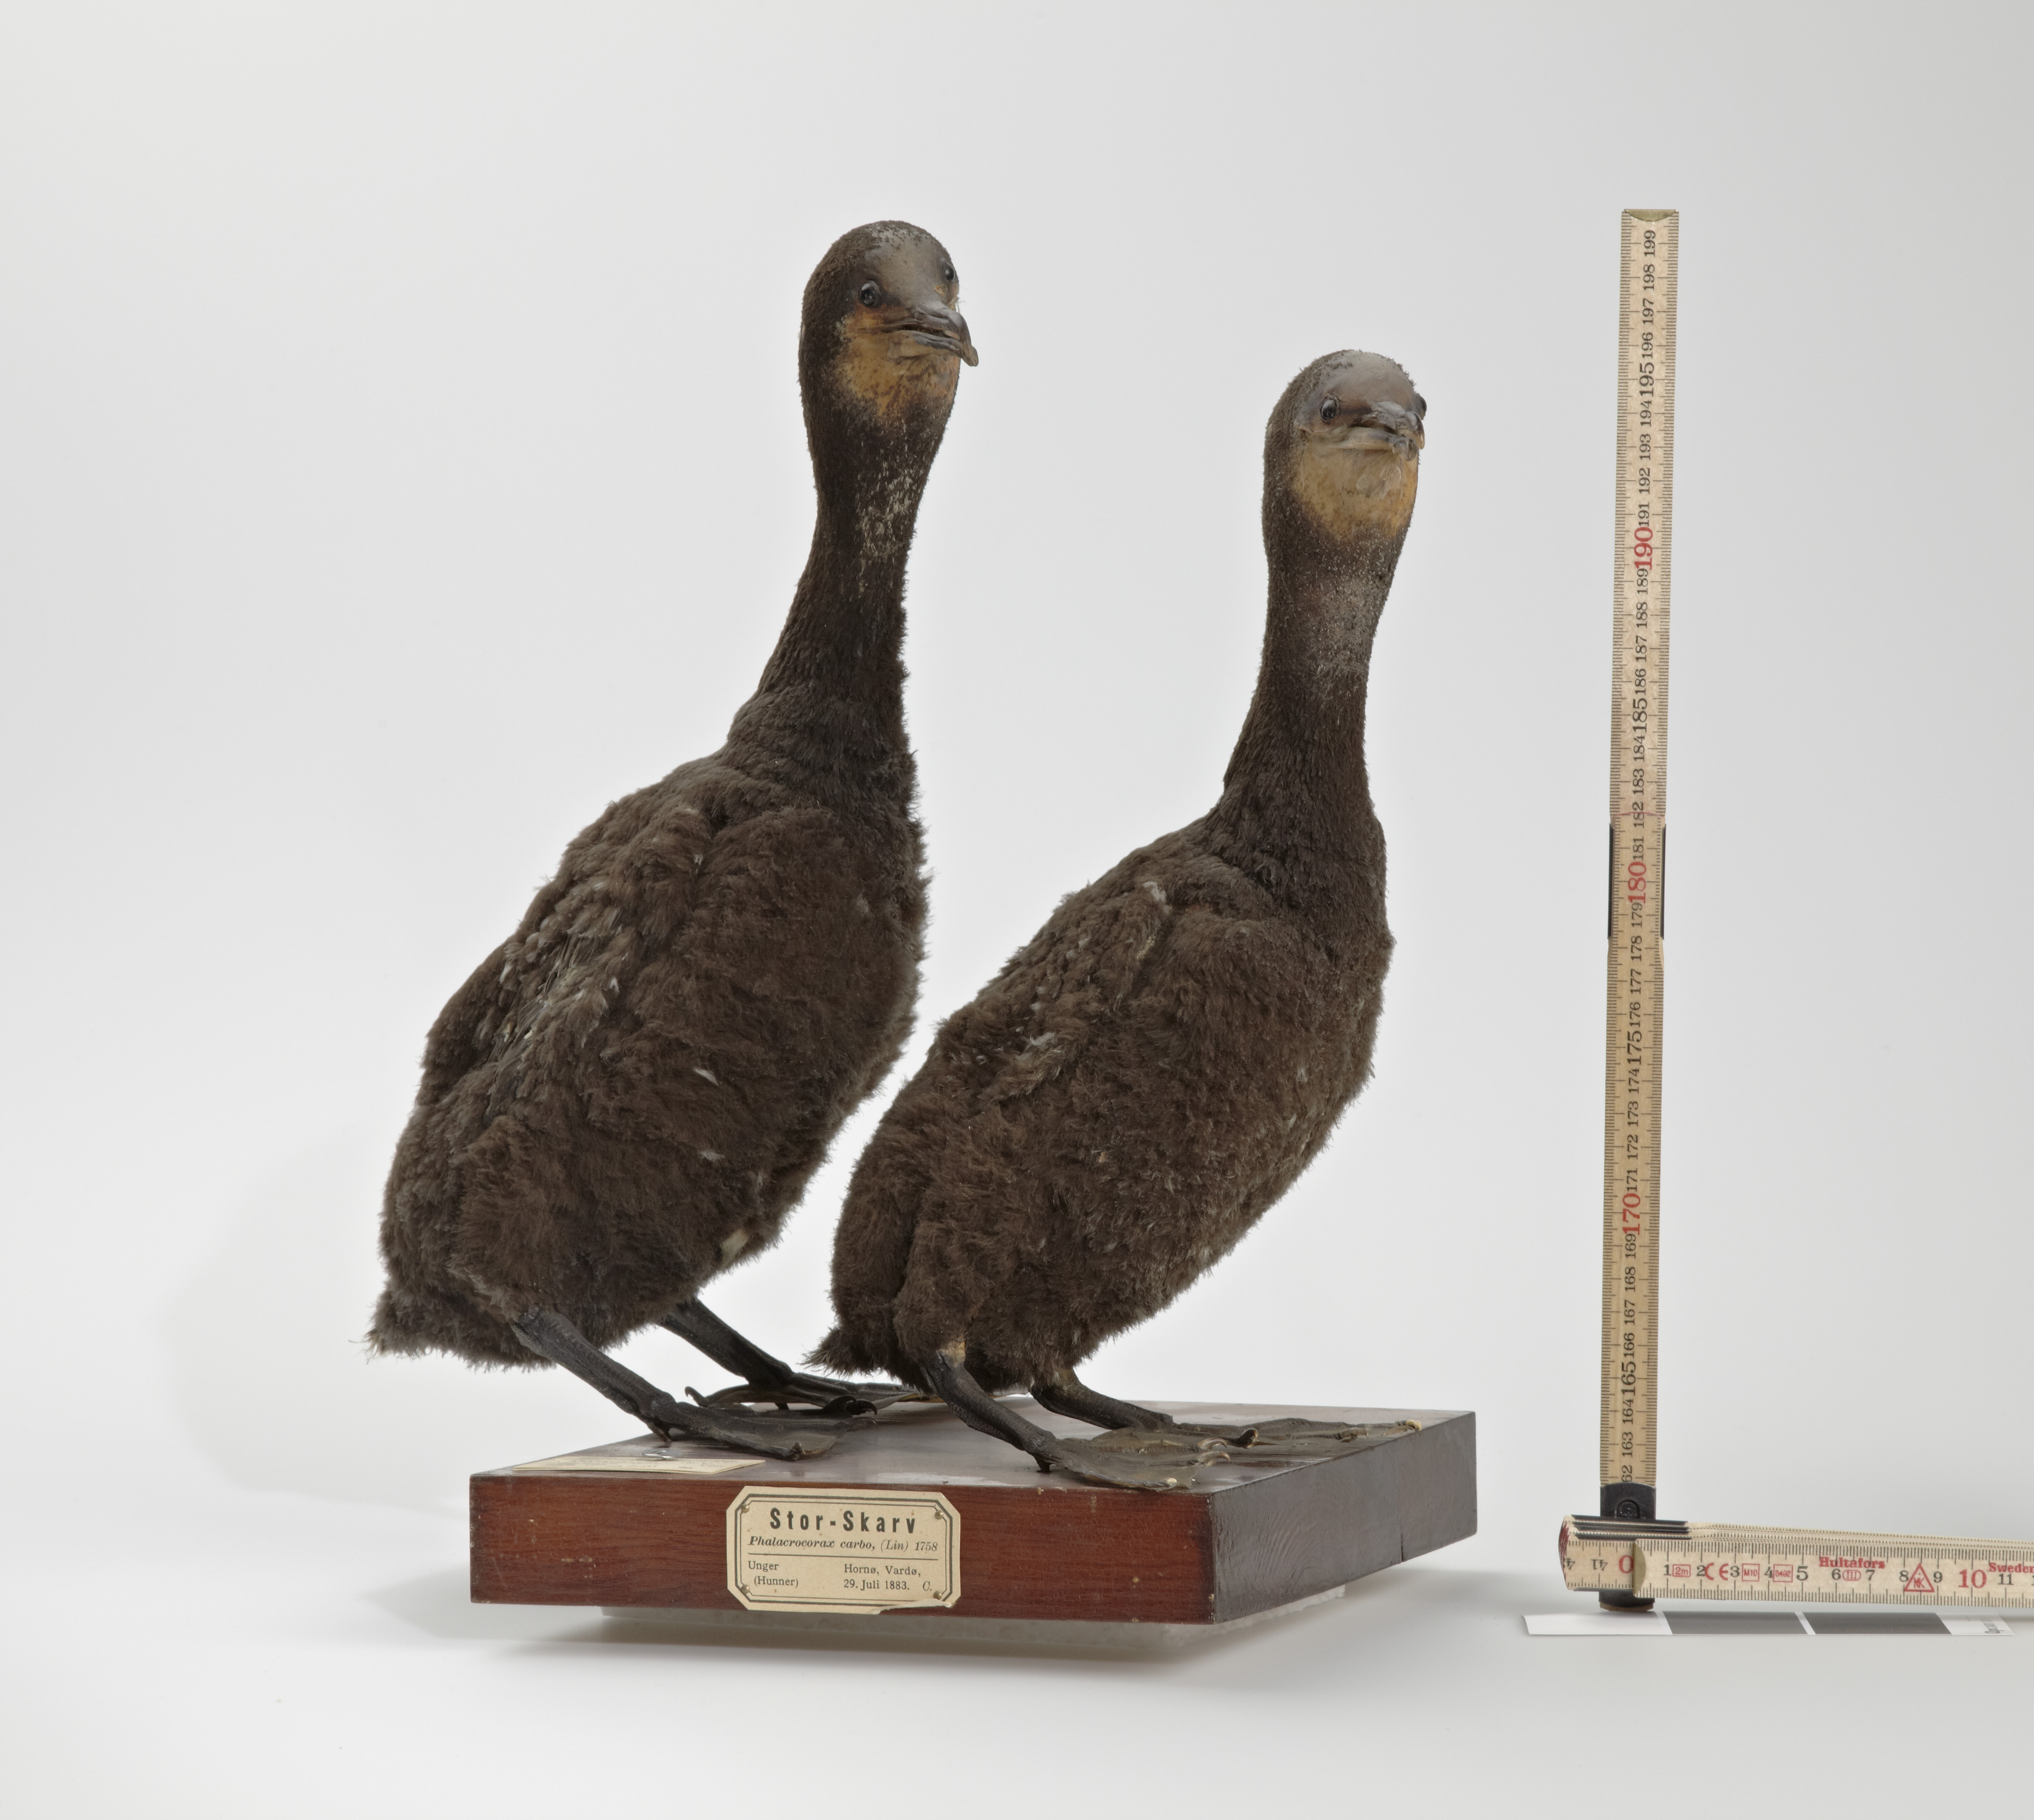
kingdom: Animalia
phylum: Chordata
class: Aves
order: Suliformes
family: Phalacrocoracidae
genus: Phalacrocorax
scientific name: Phalacrocorax carbo
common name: Great cormorant
